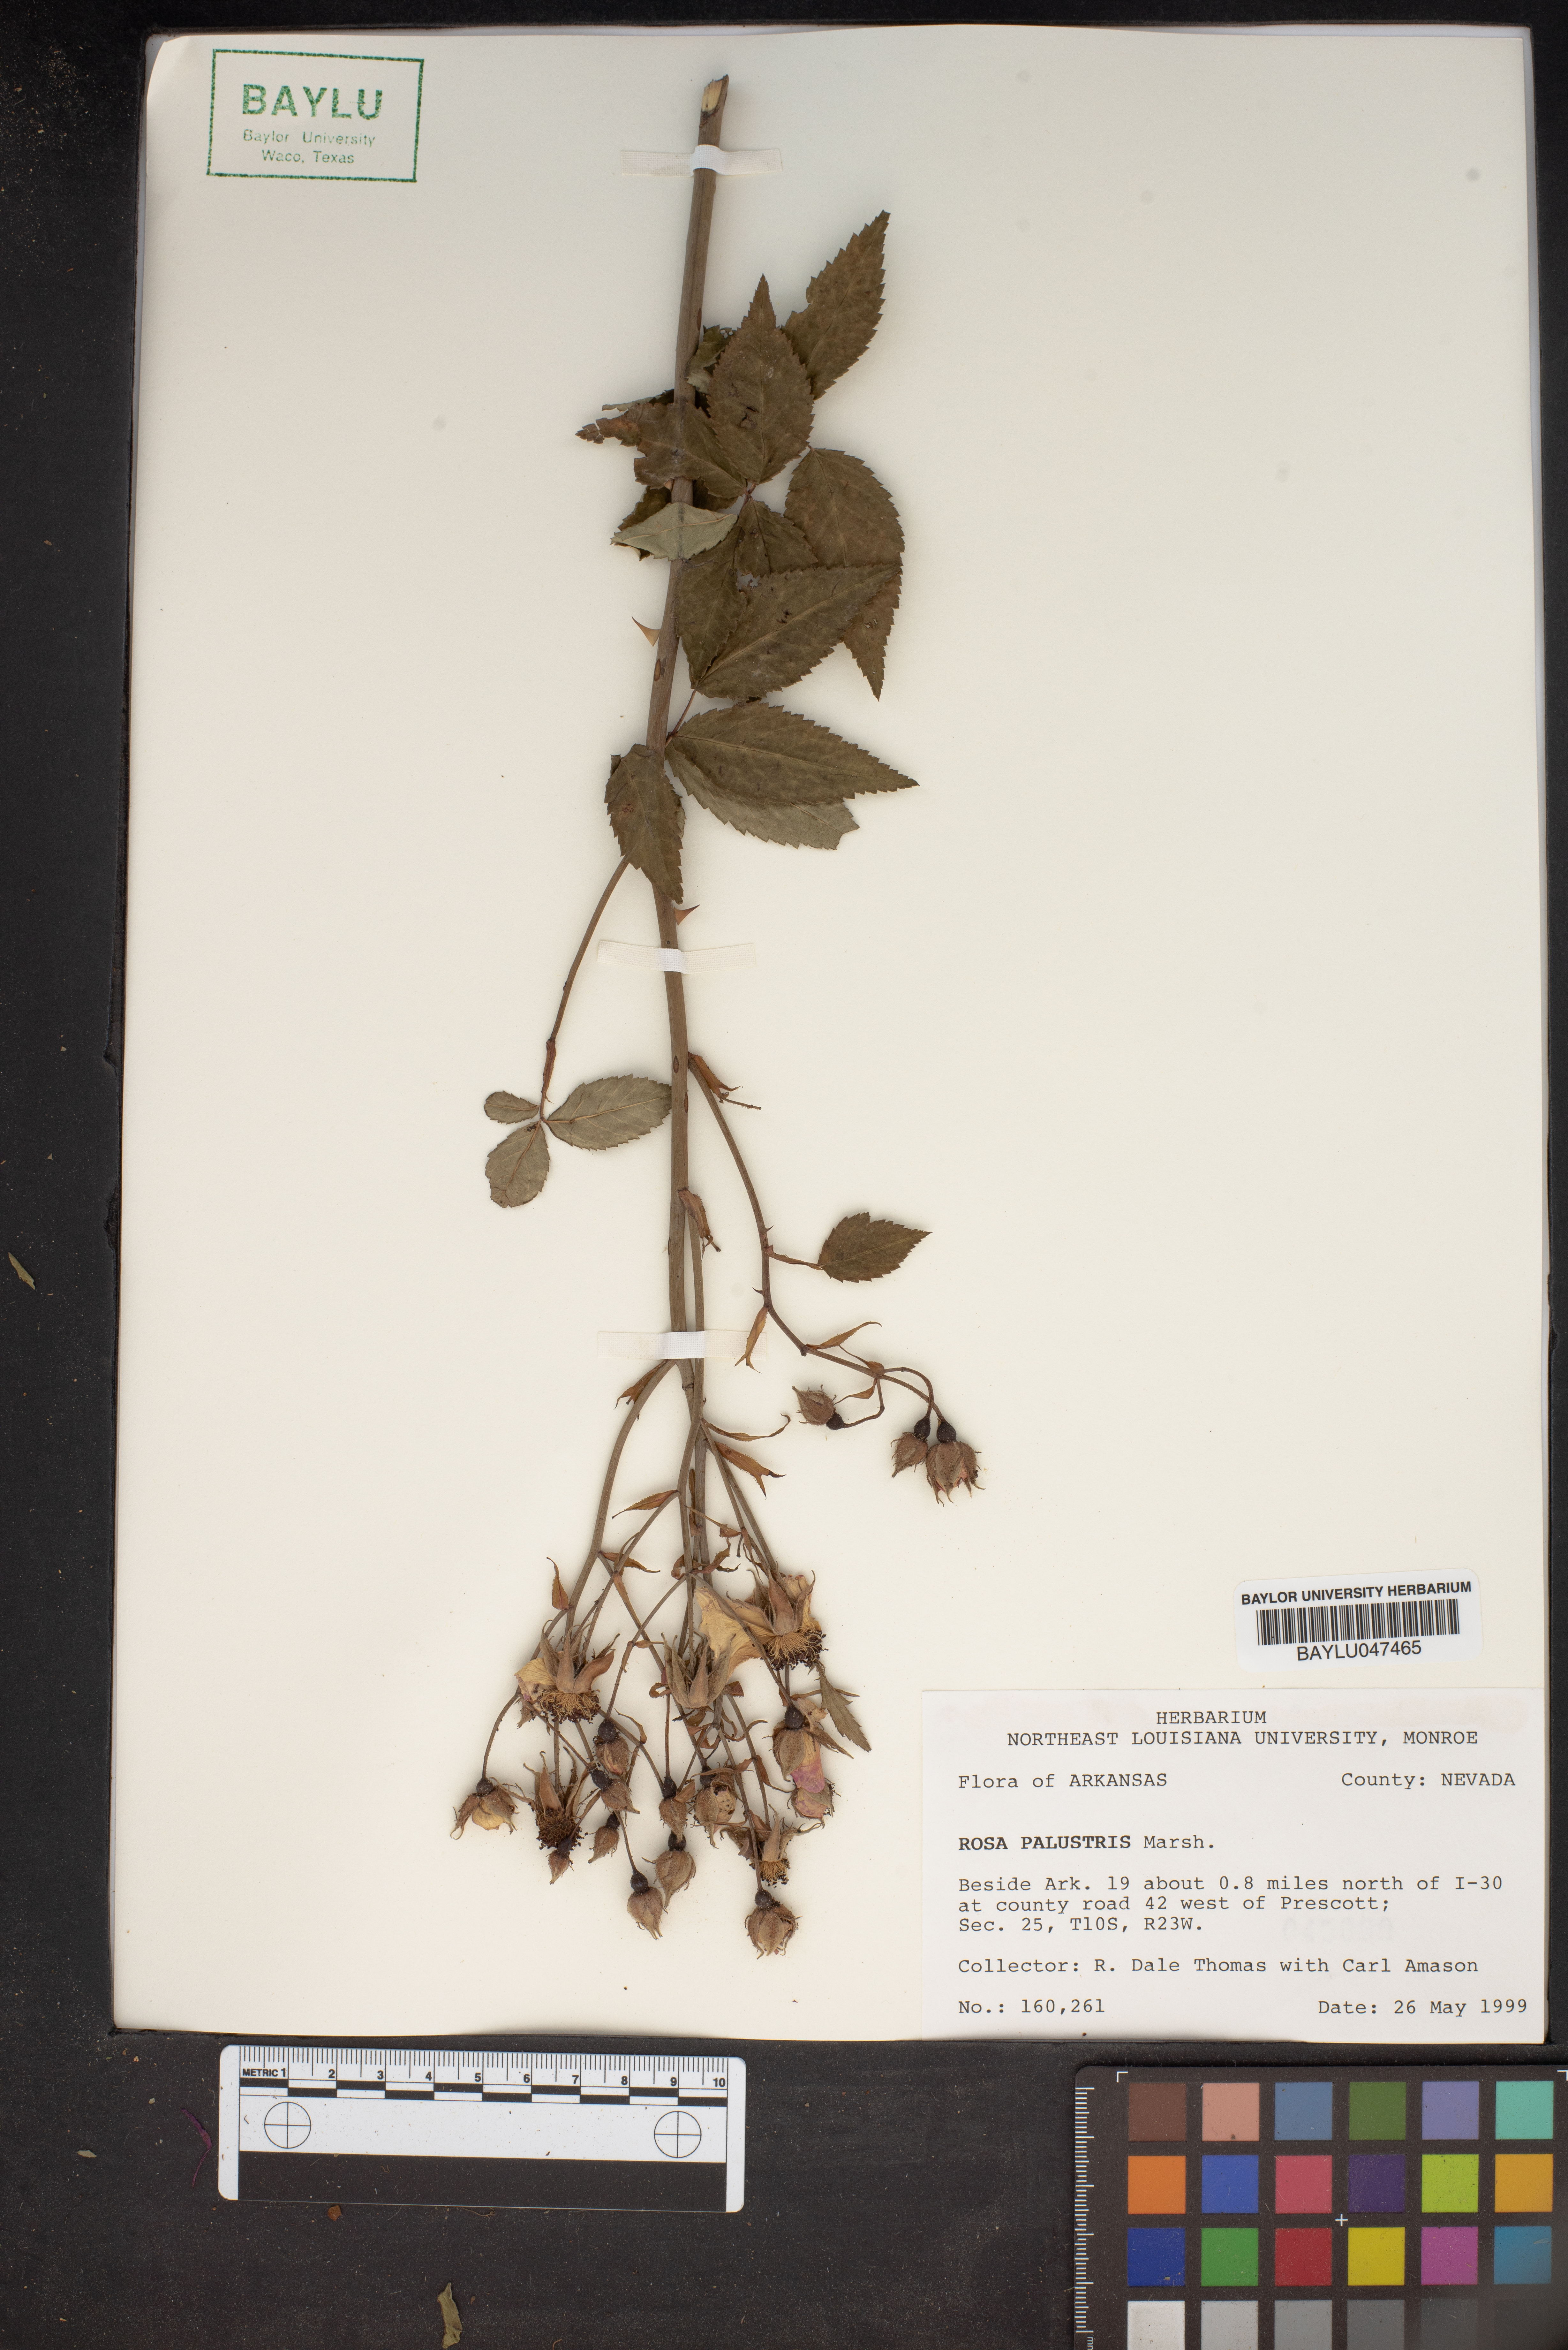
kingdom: Plantae
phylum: Tracheophyta
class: Magnoliopsida
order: Rosales
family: Rosaceae
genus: Rosa
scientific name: Rosa palustris
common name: Swamp rose
